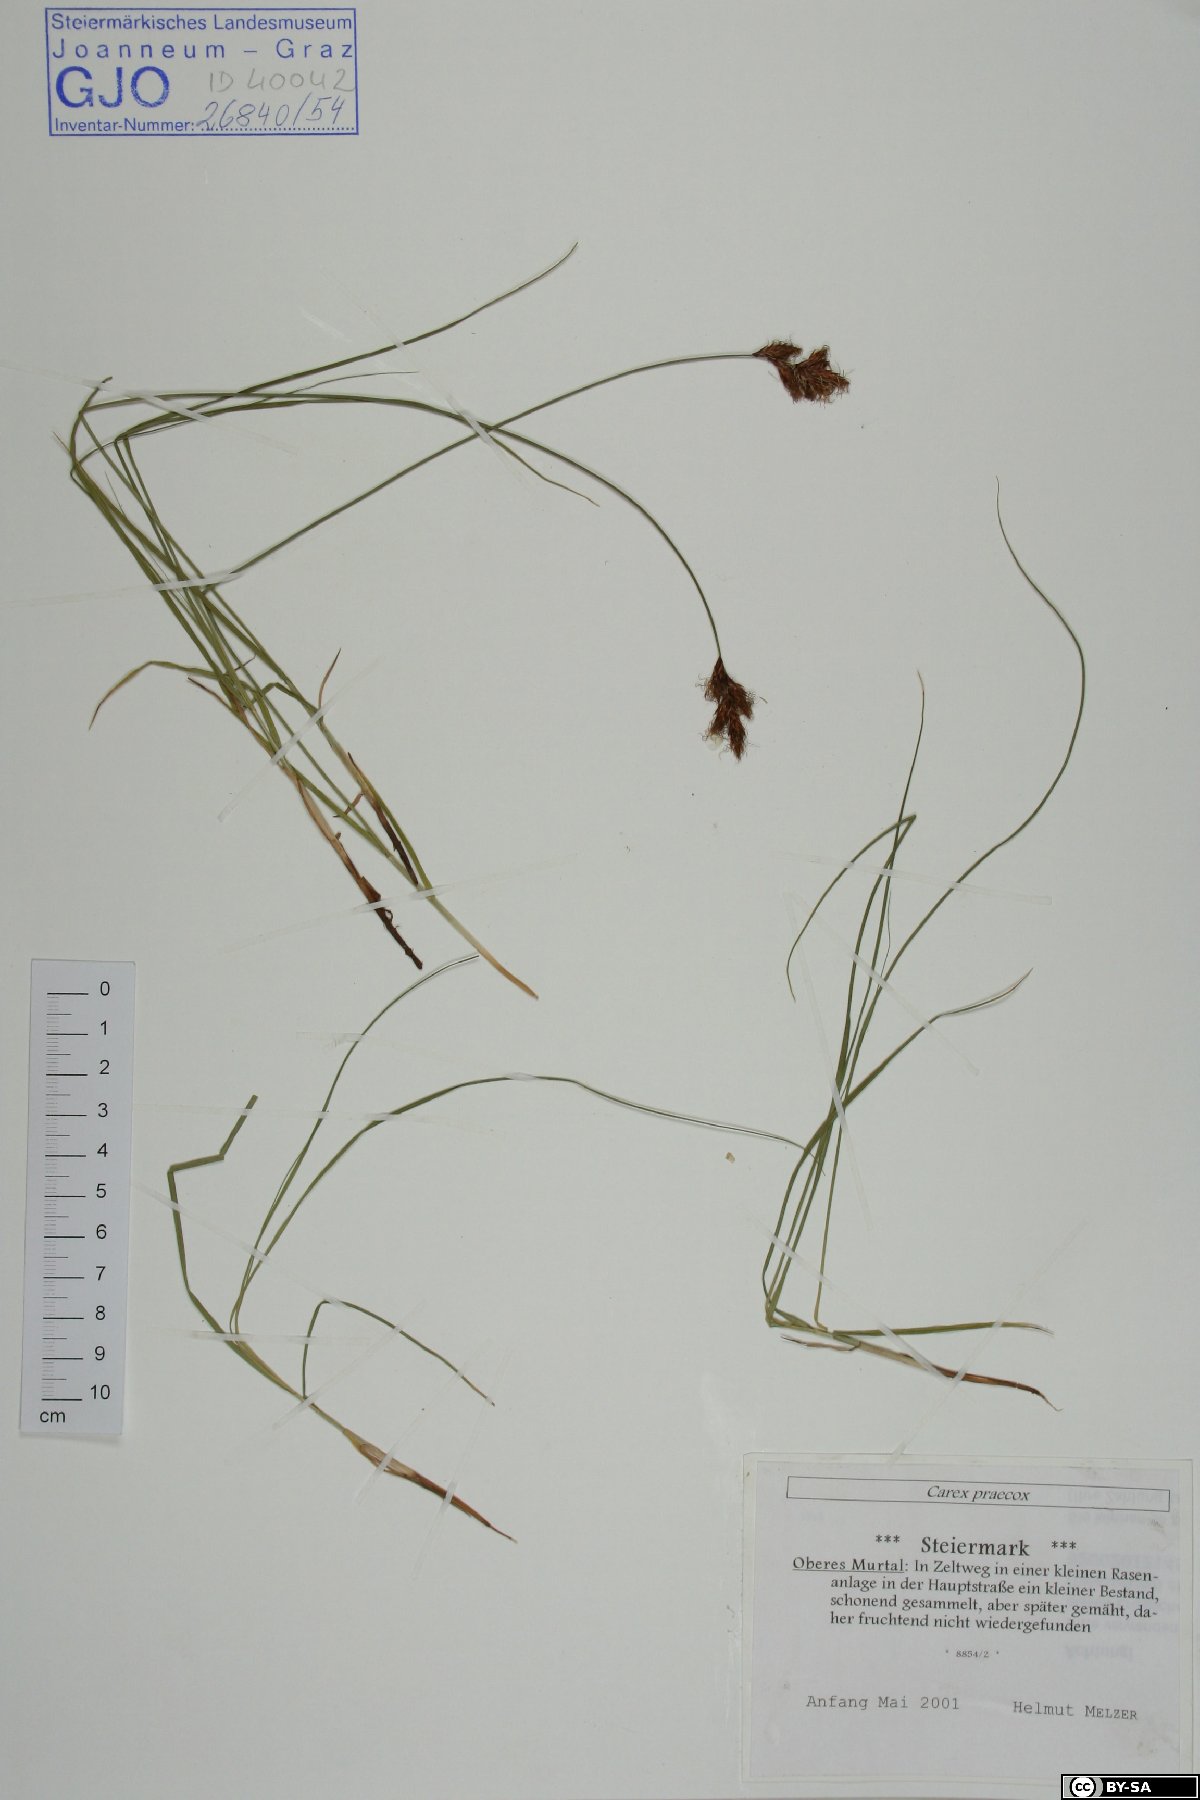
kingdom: Plantae
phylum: Tracheophyta
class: Liliopsida
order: Poales
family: Cyperaceae
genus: Carex
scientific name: Carex praecox
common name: Early sedge
